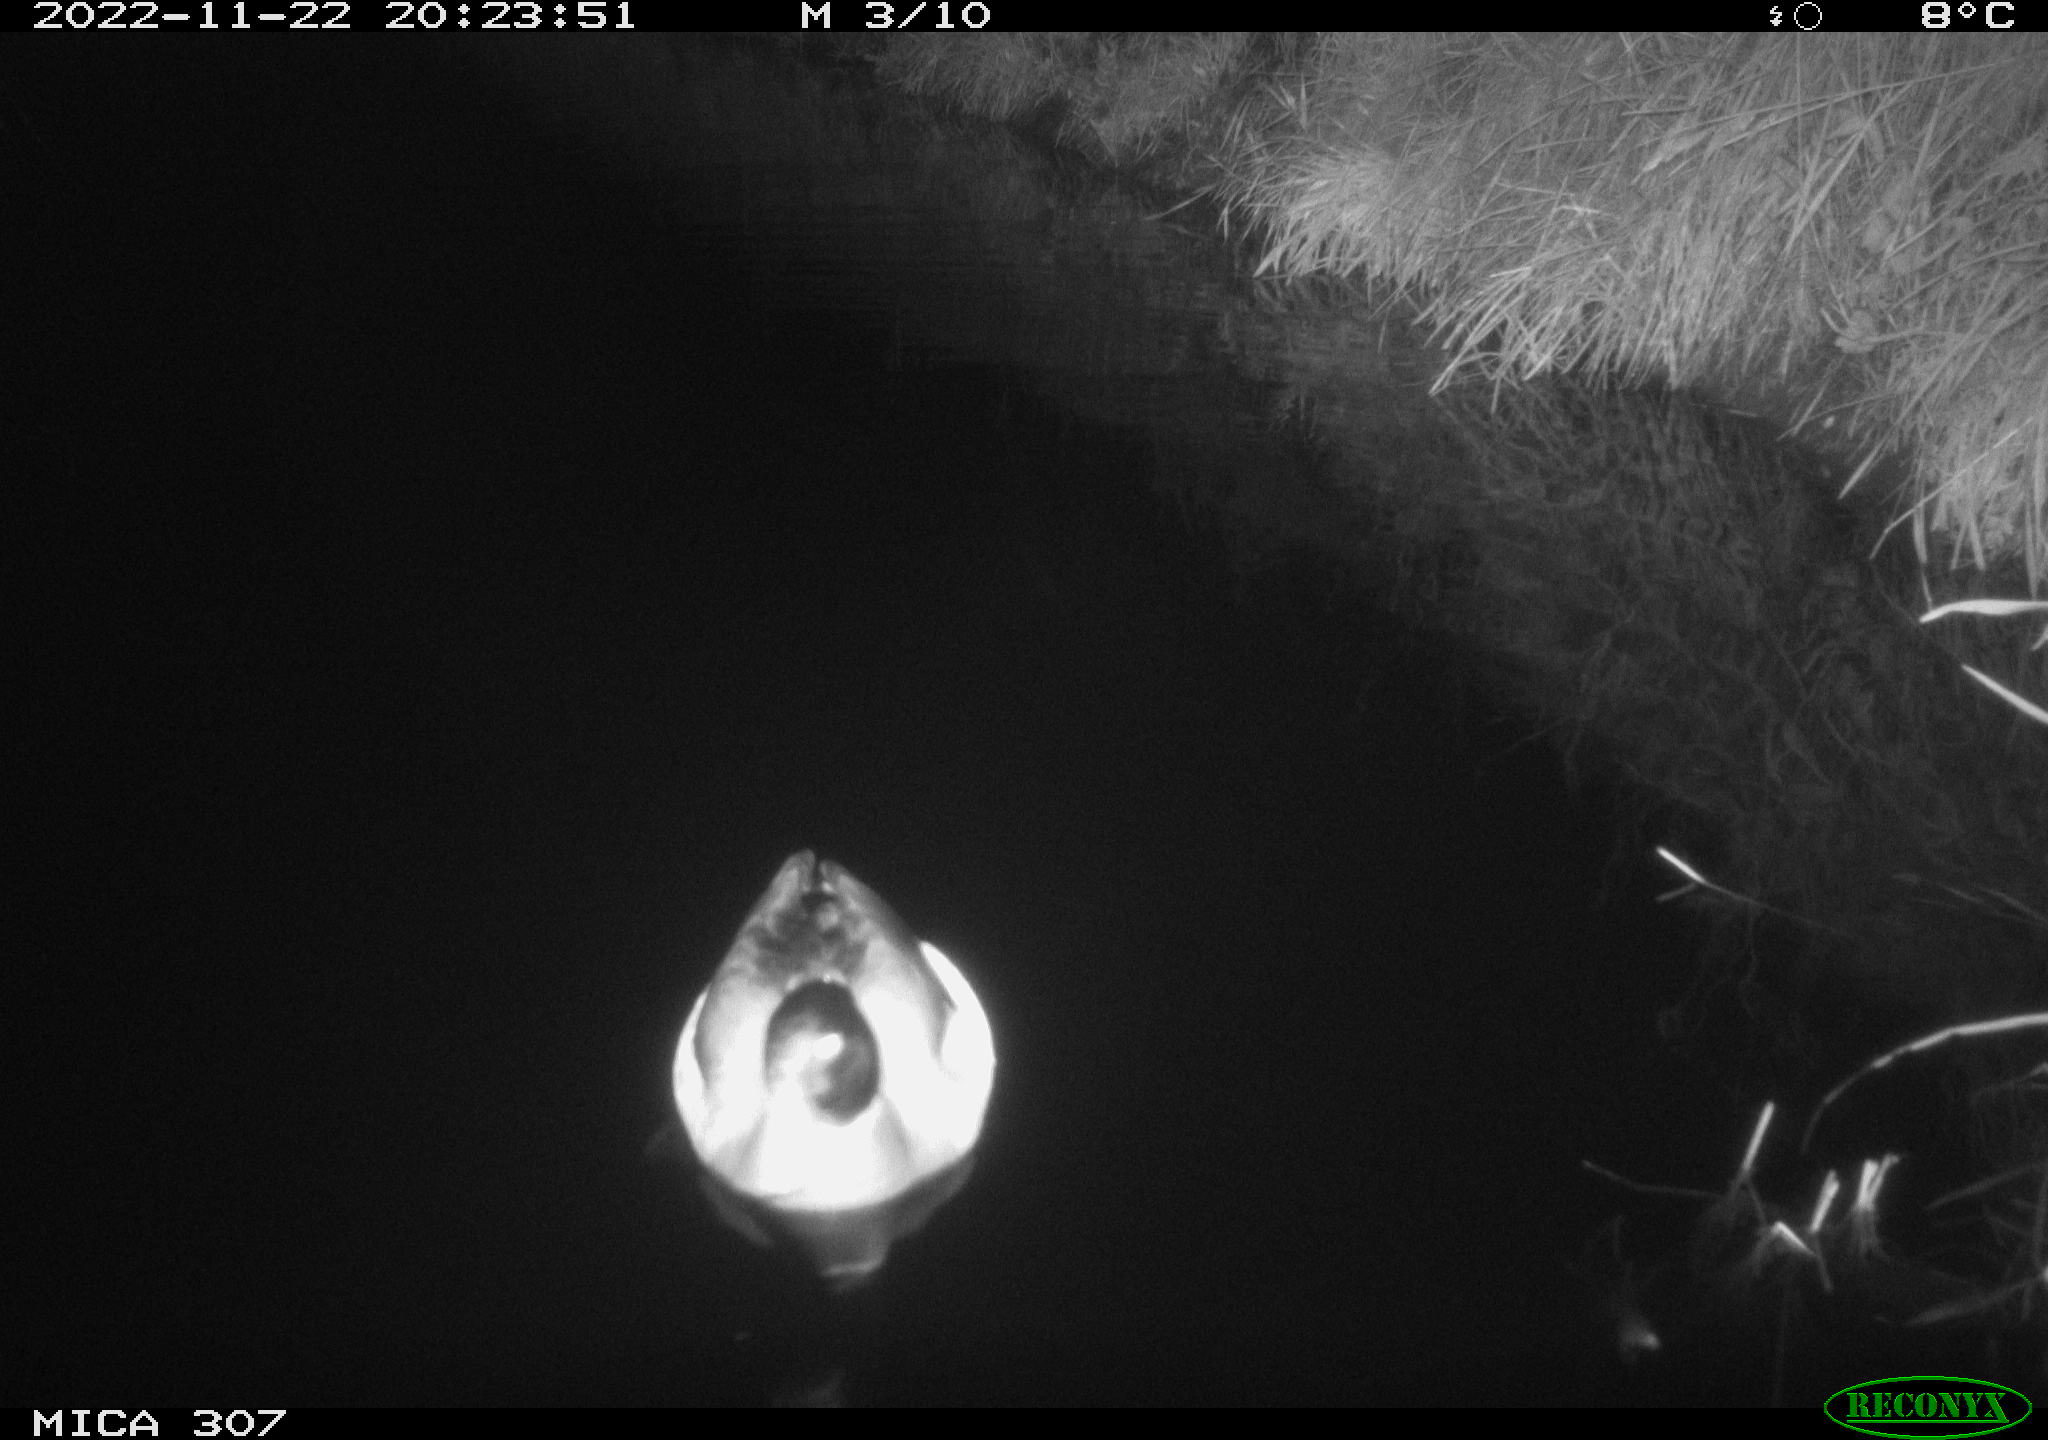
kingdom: Animalia
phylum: Chordata
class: Aves
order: Anseriformes
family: Anatidae
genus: Anas
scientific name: Anas
